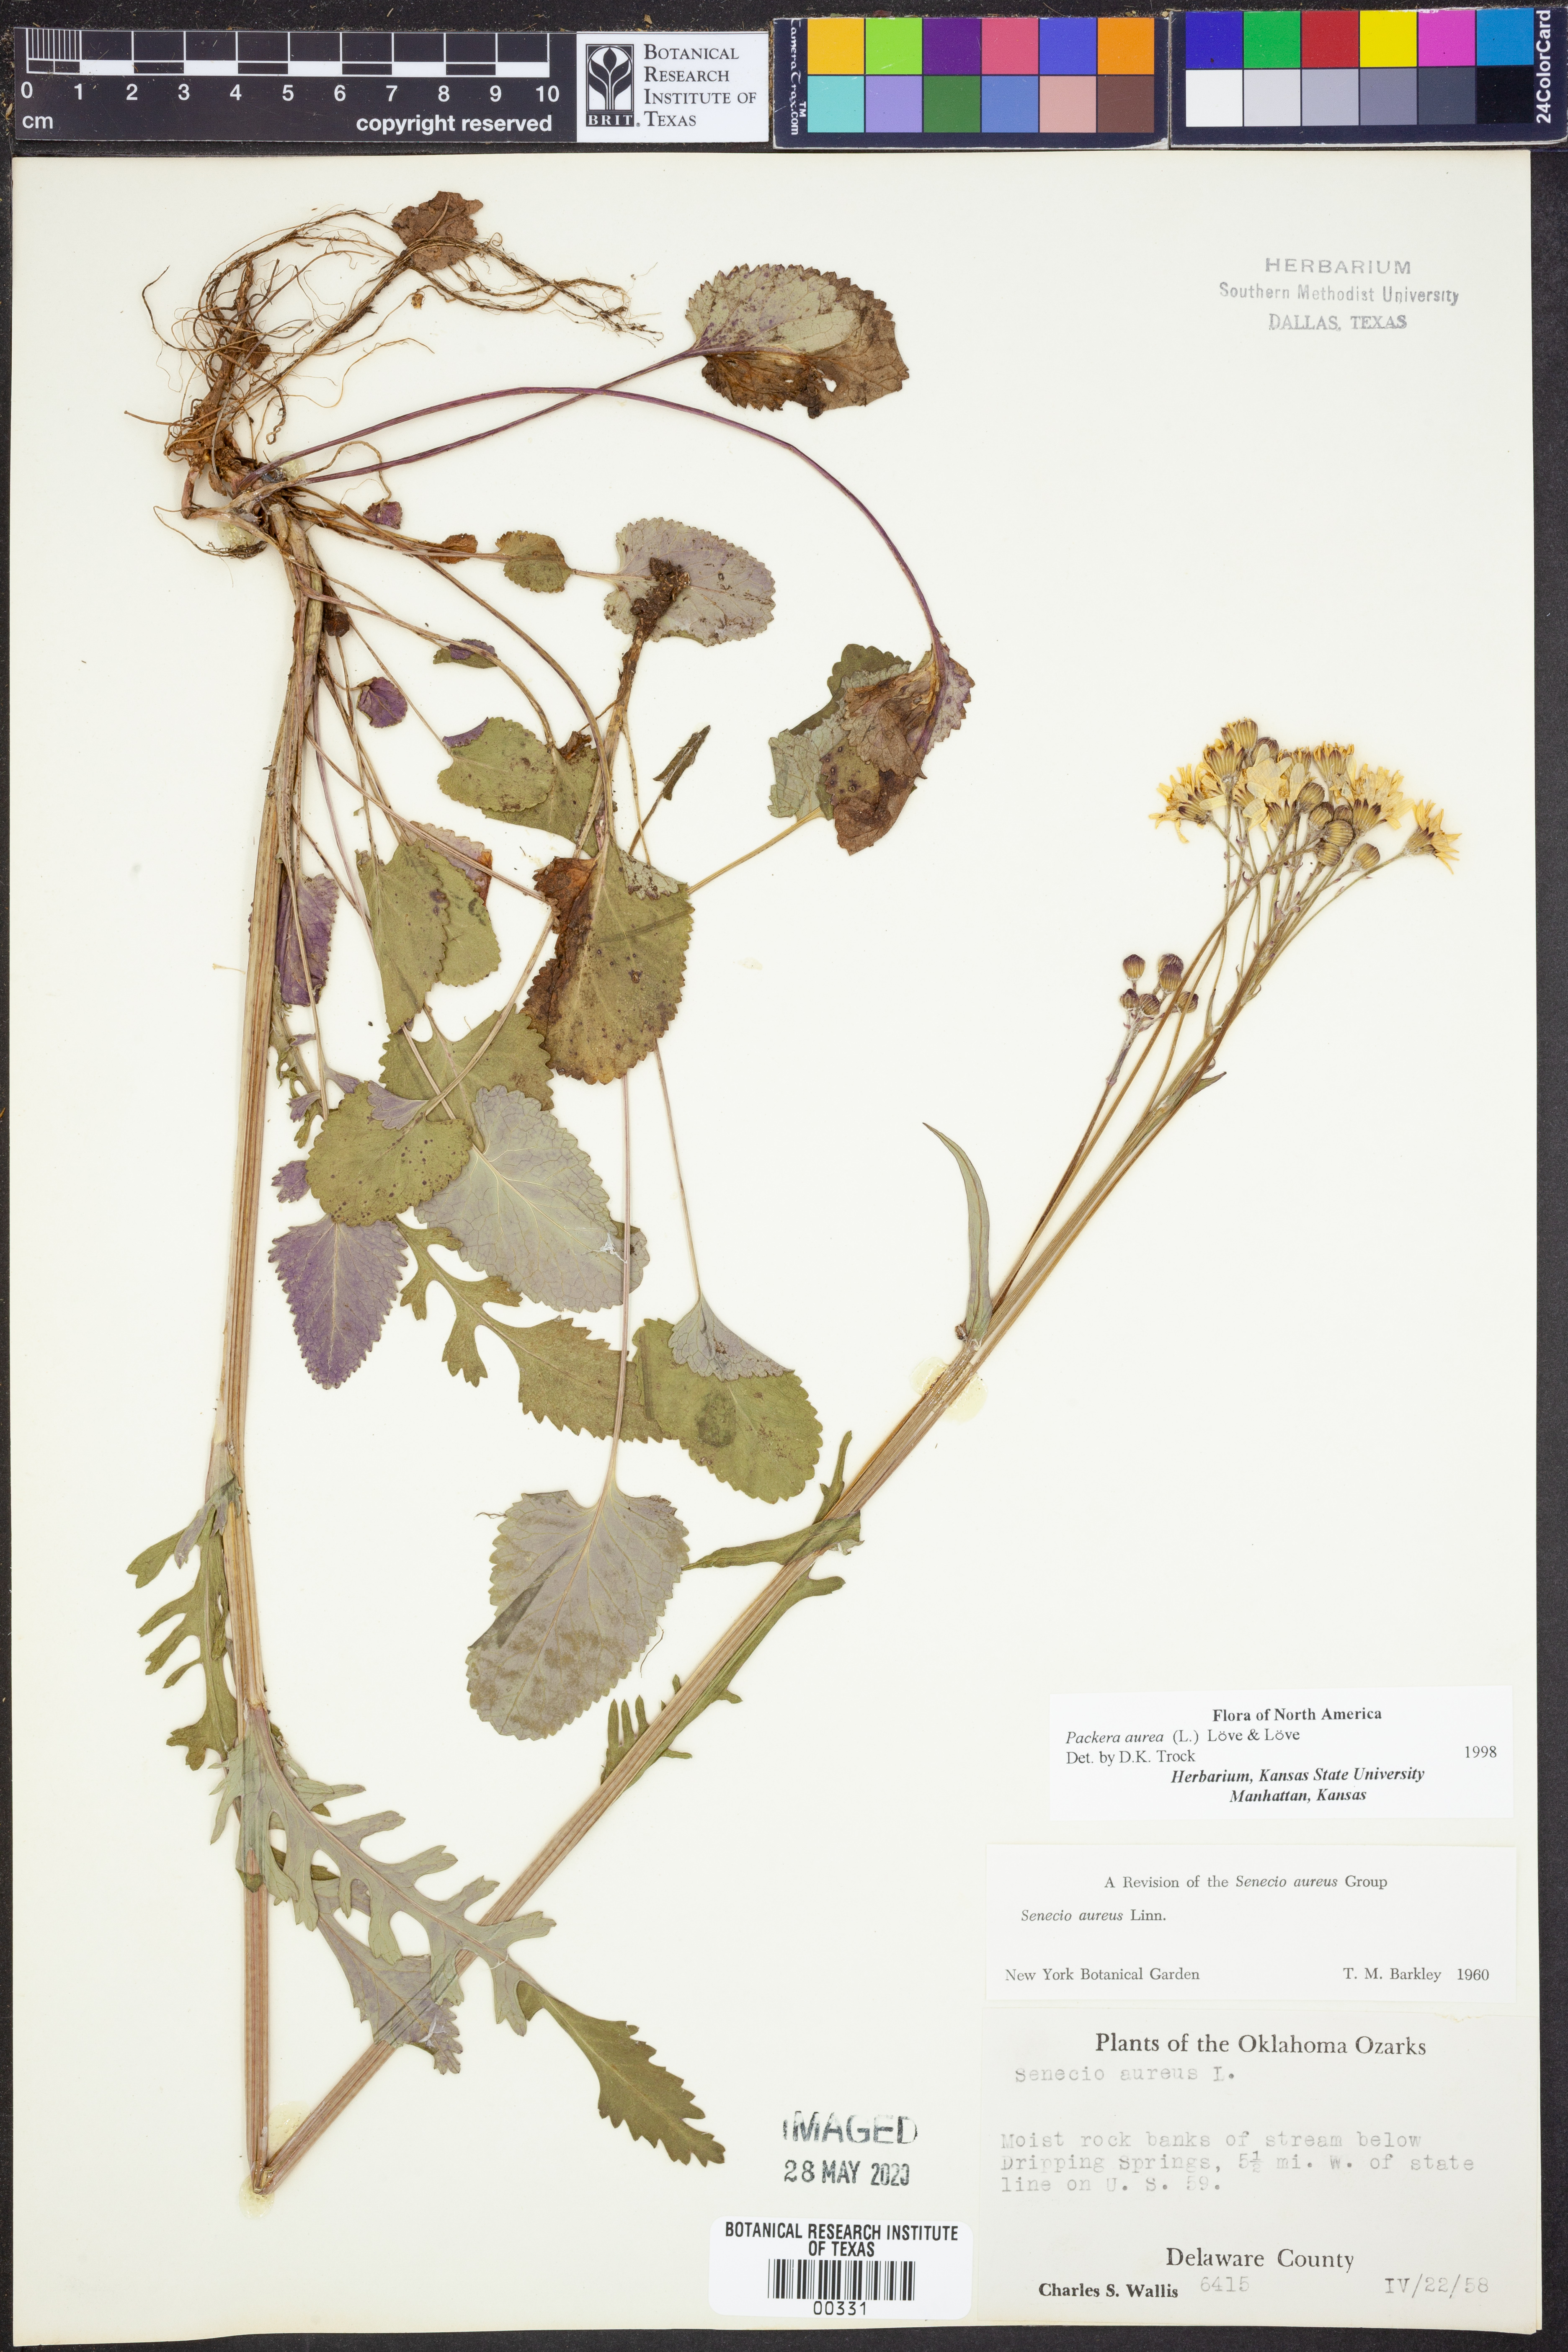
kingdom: Plantae
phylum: Tracheophyta
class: Magnoliopsida
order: Asterales
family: Asteraceae
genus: Packera
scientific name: Packera aurea
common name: Golden groundsel
